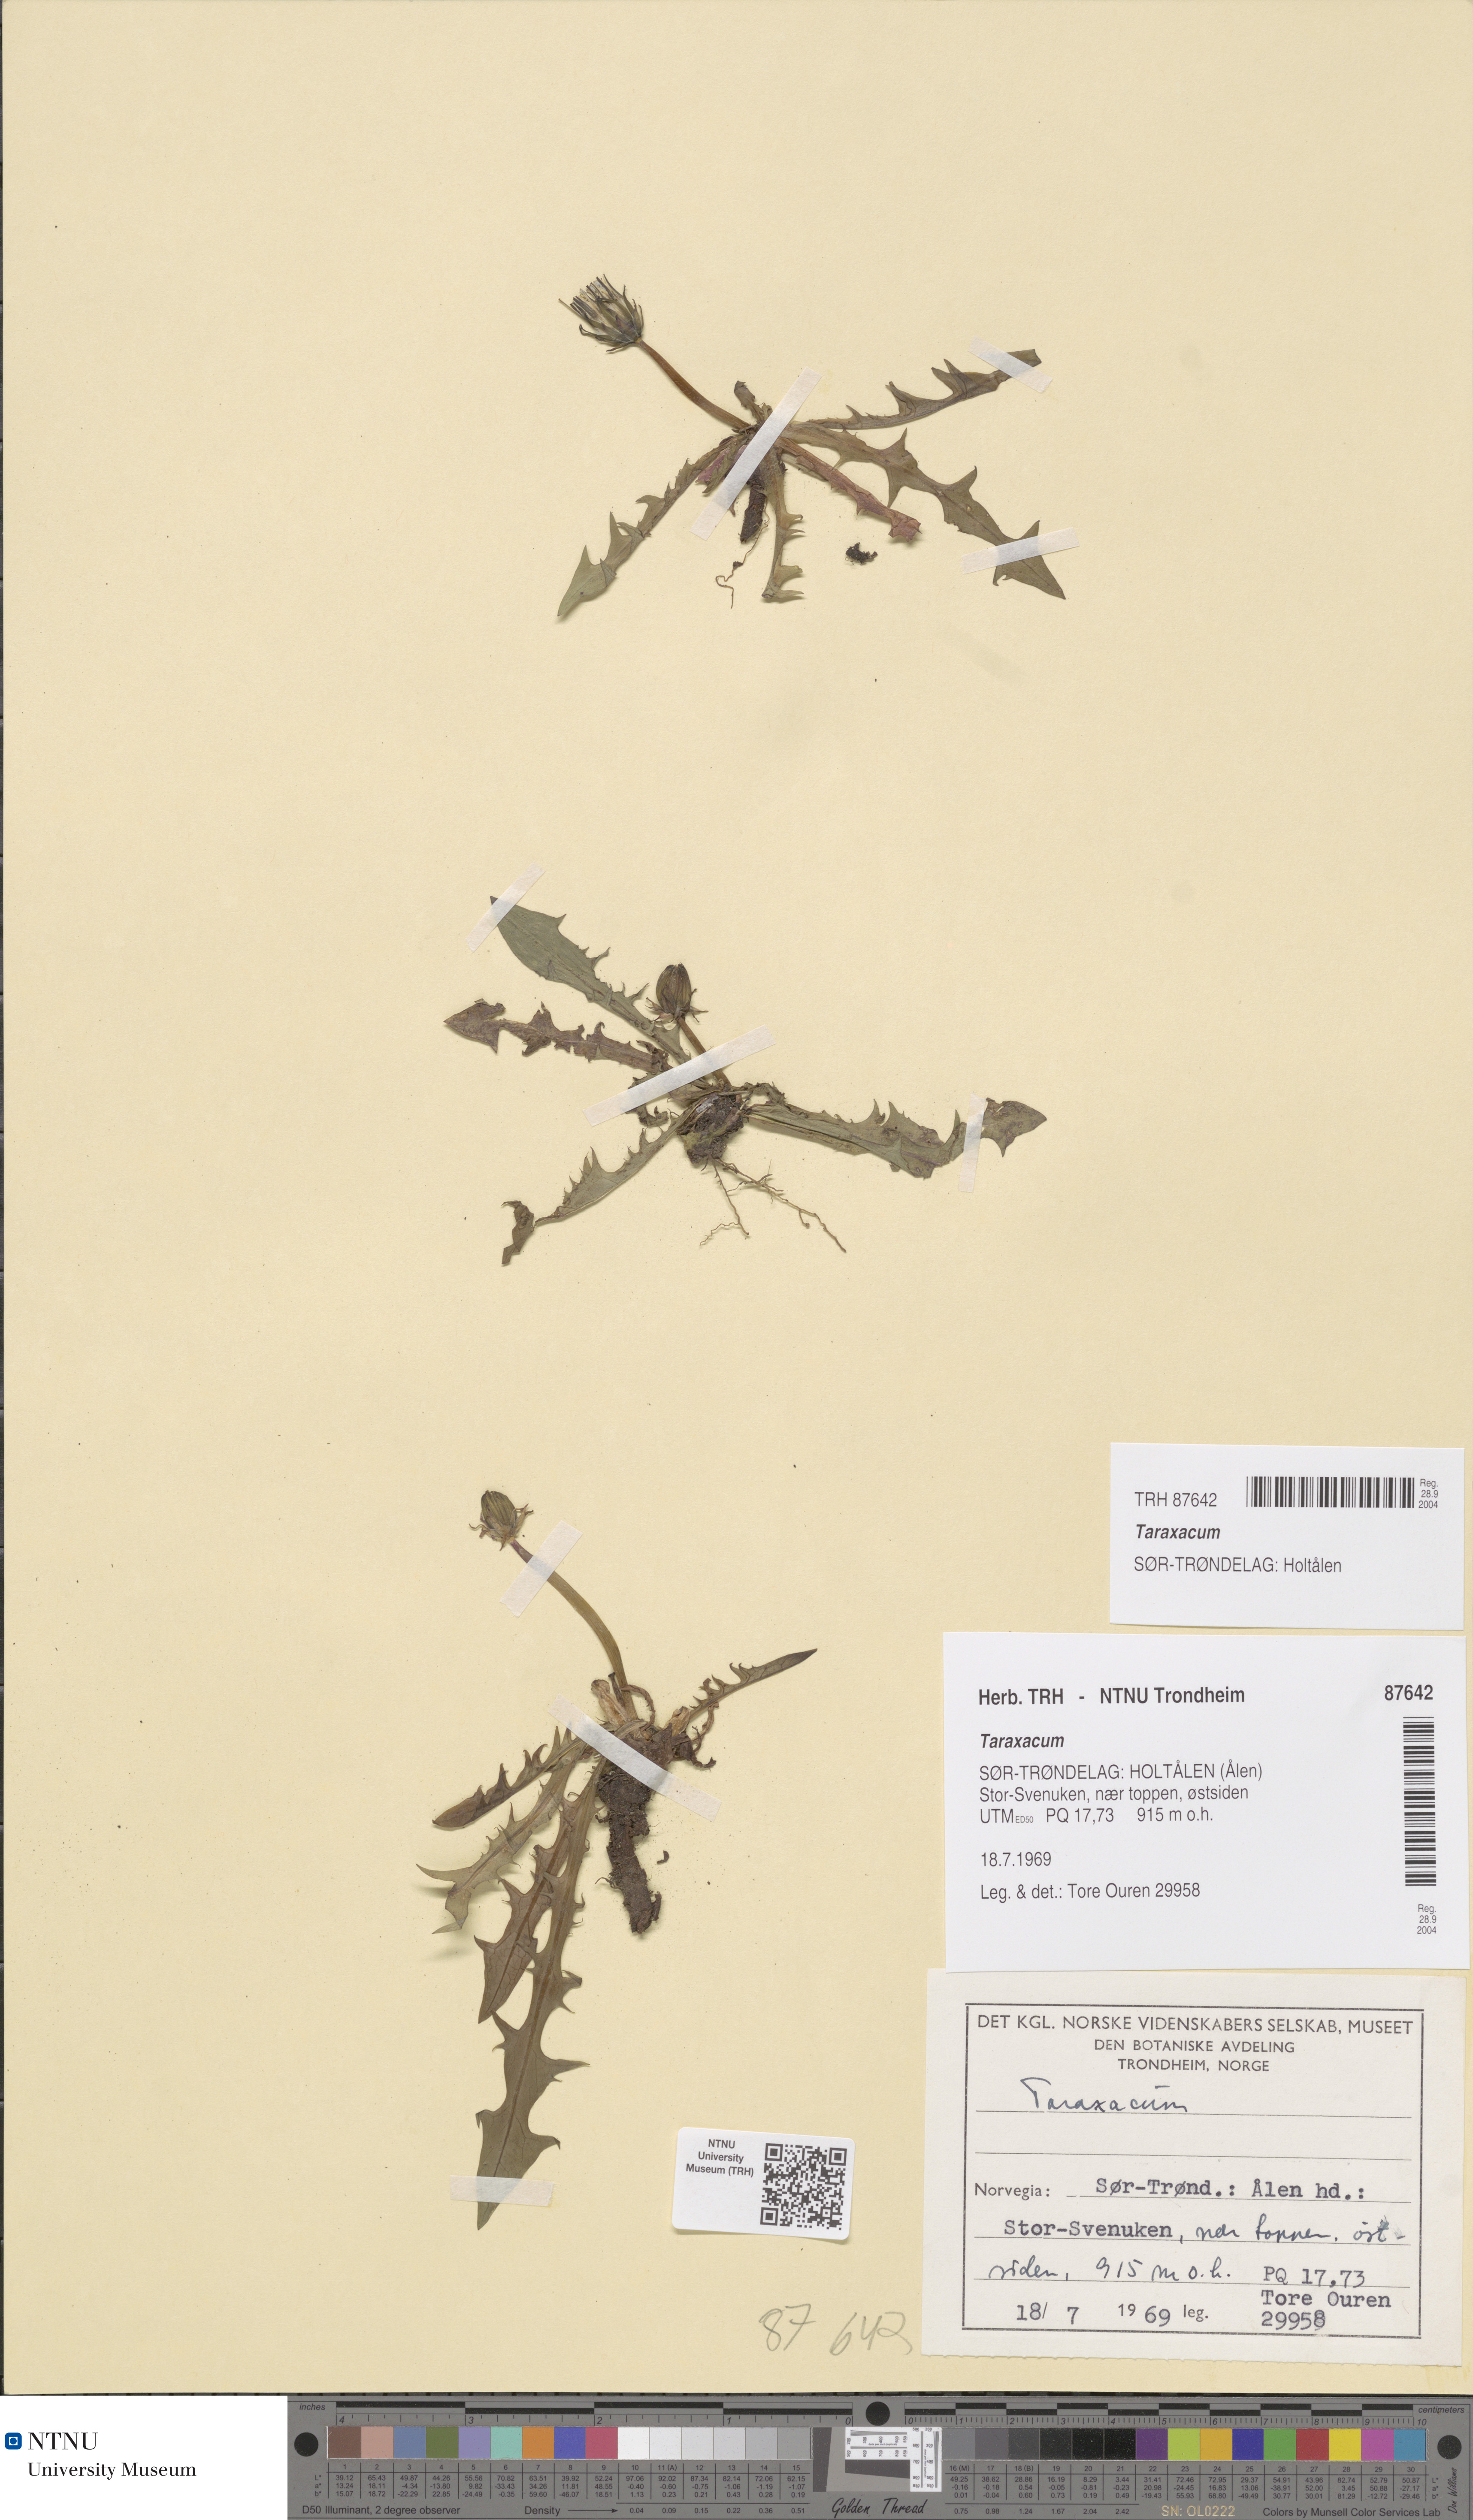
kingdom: Plantae
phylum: Tracheophyta
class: Magnoliopsida
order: Asterales
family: Asteraceae
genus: Taraxacum
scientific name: Taraxacum
